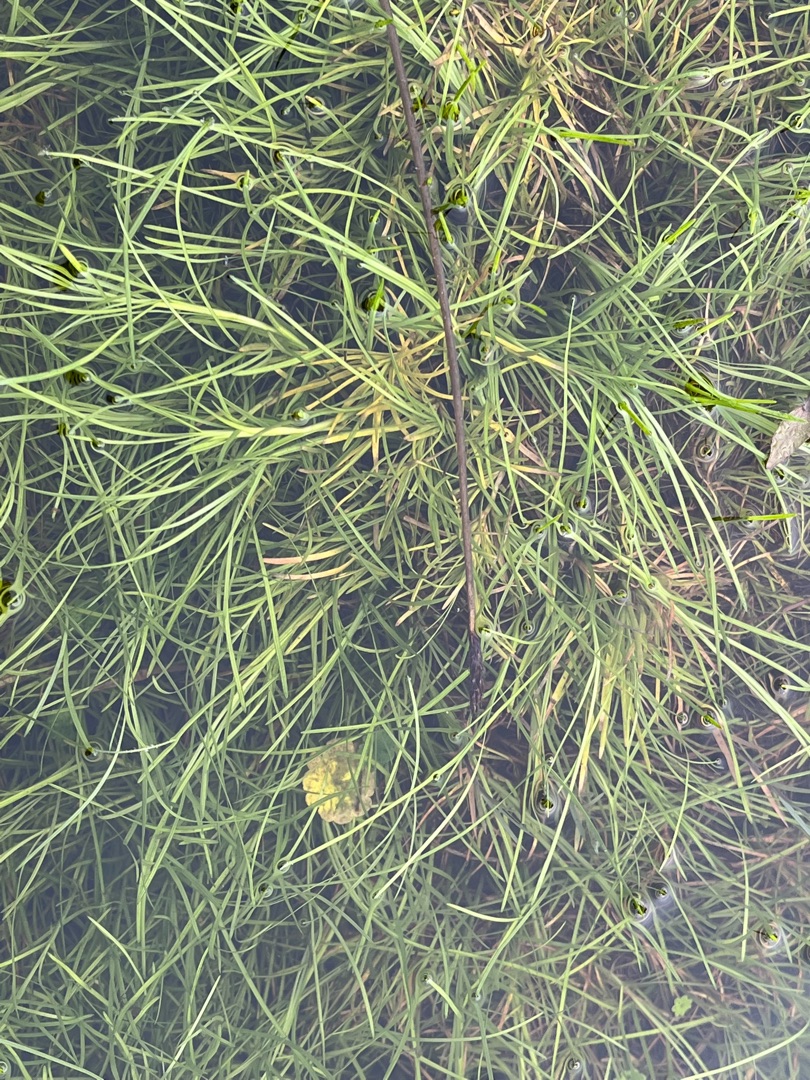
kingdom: Plantae
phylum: Tracheophyta
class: Liliopsida
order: Poales
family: Cyperaceae
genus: Isolepis
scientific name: Isolepis fluitans
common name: Flydende kogleaks
